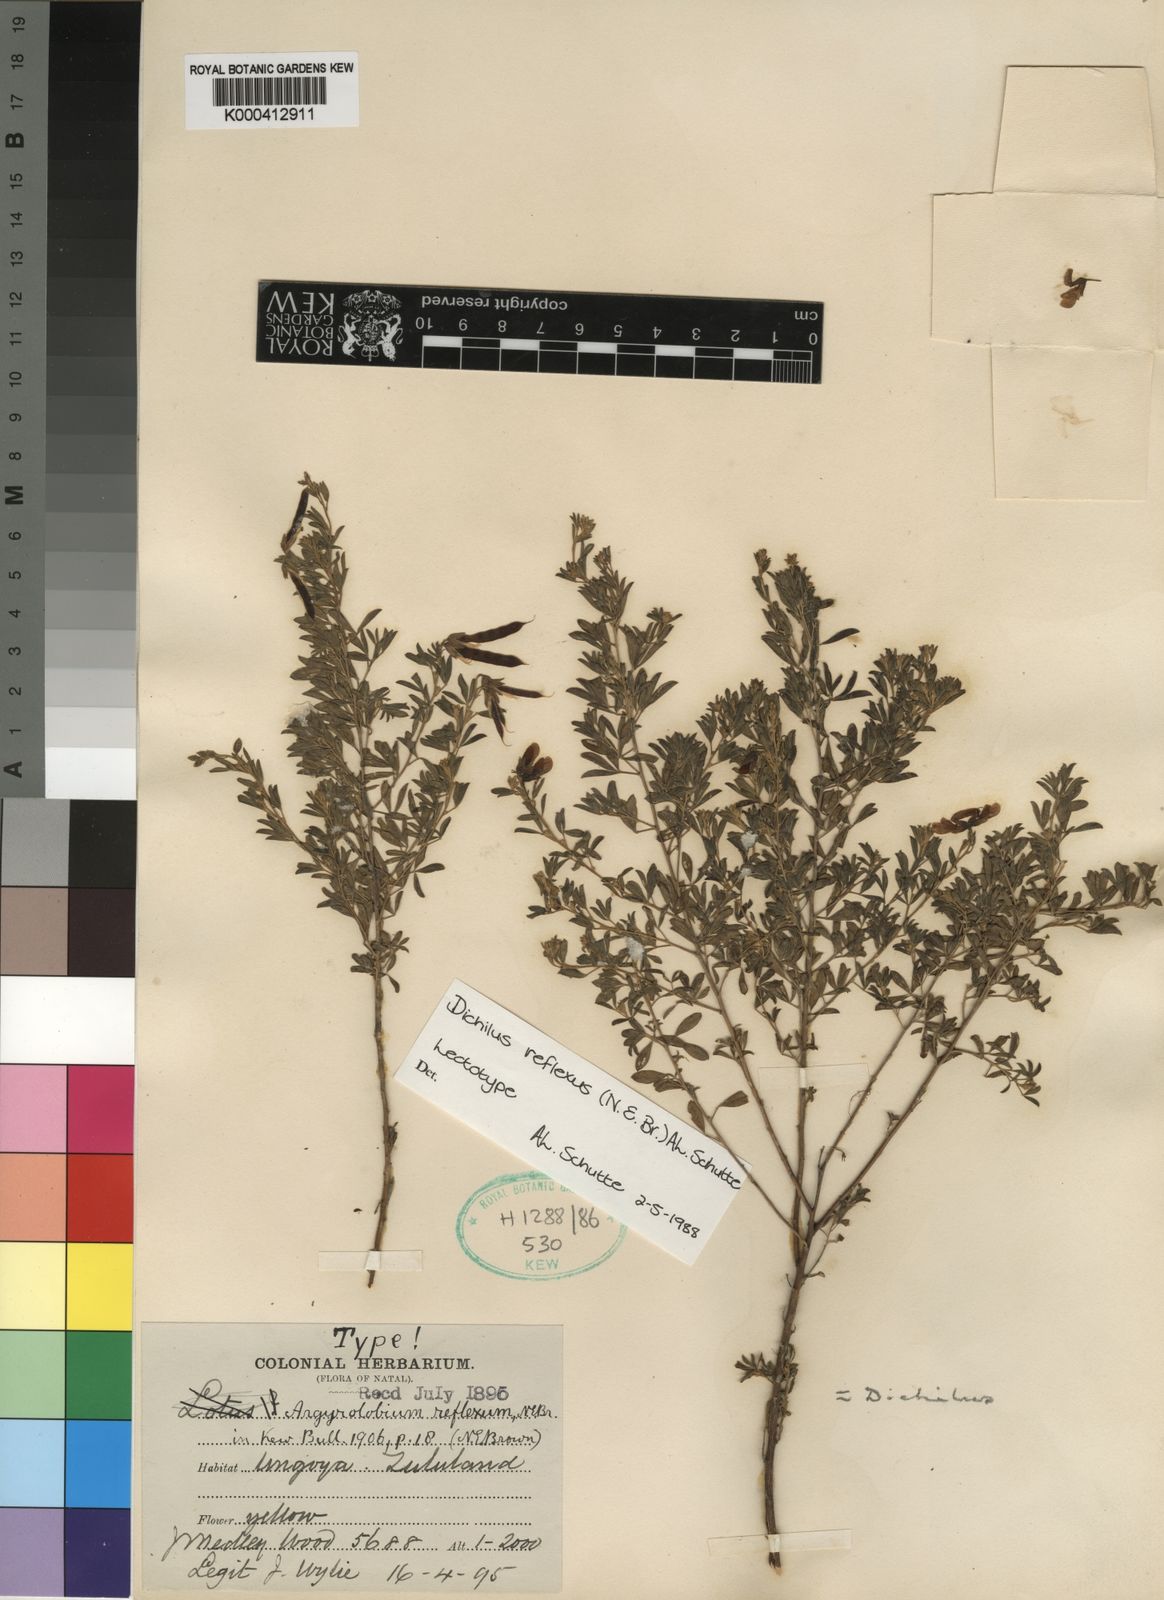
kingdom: Plantae
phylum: Tracheophyta
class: Magnoliopsida
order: Fabales
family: Fabaceae
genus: Dichilus
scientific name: Dichilus reflexus
